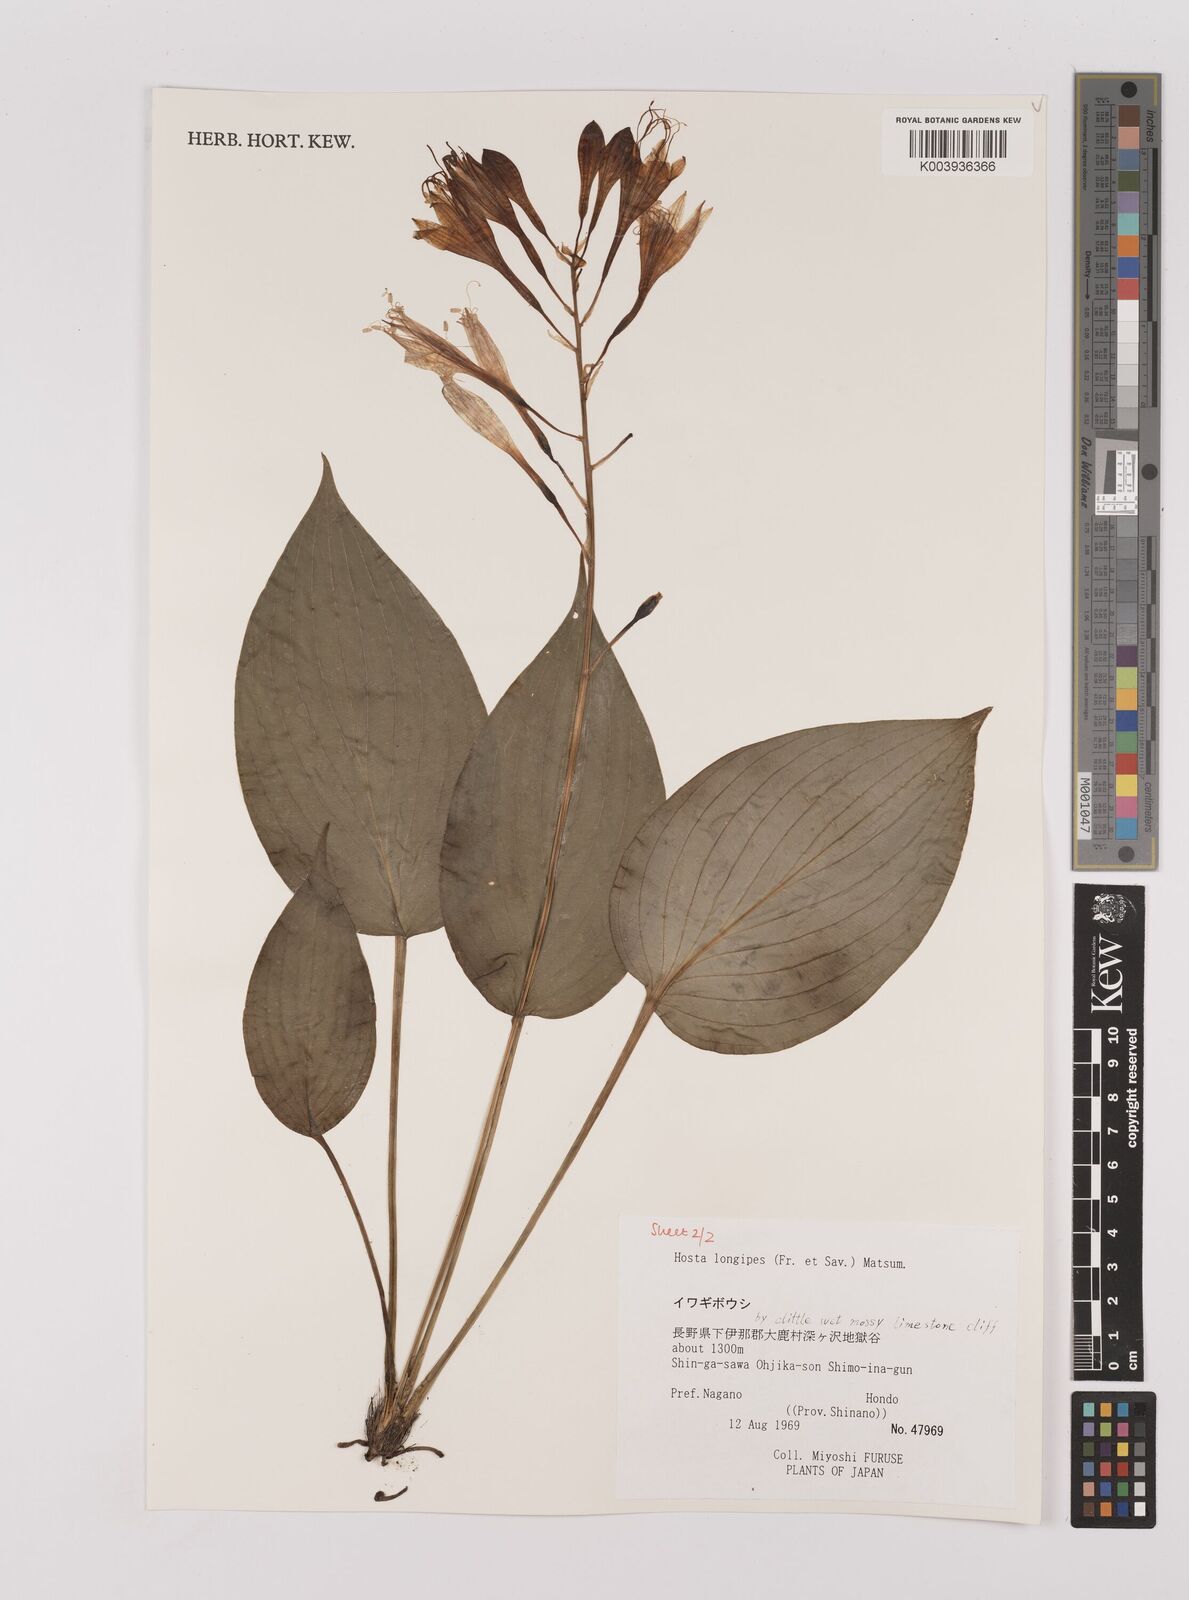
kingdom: Plantae
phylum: Tracheophyta
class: Liliopsida
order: Asparagales
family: Asparagaceae
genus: Hosta
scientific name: Hosta
